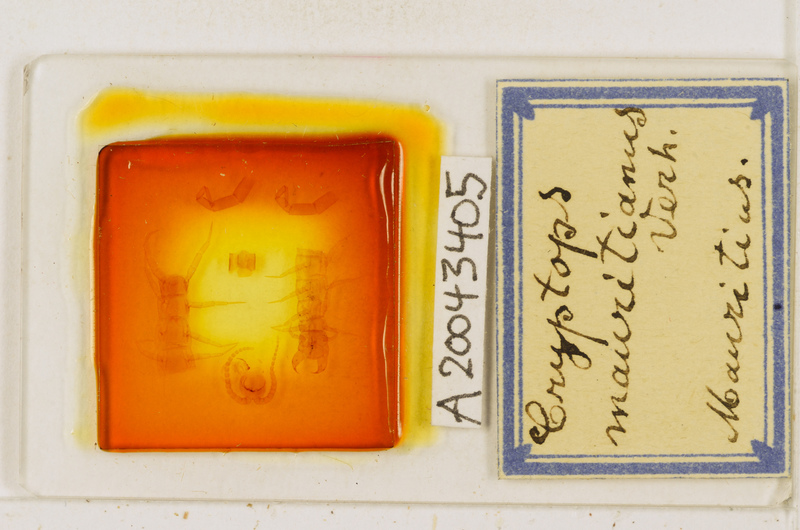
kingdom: Animalia
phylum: Arthropoda
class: Chilopoda
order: Scolopendromorpha
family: Cryptopidae
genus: Cryptops
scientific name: Cryptops mauritianus
